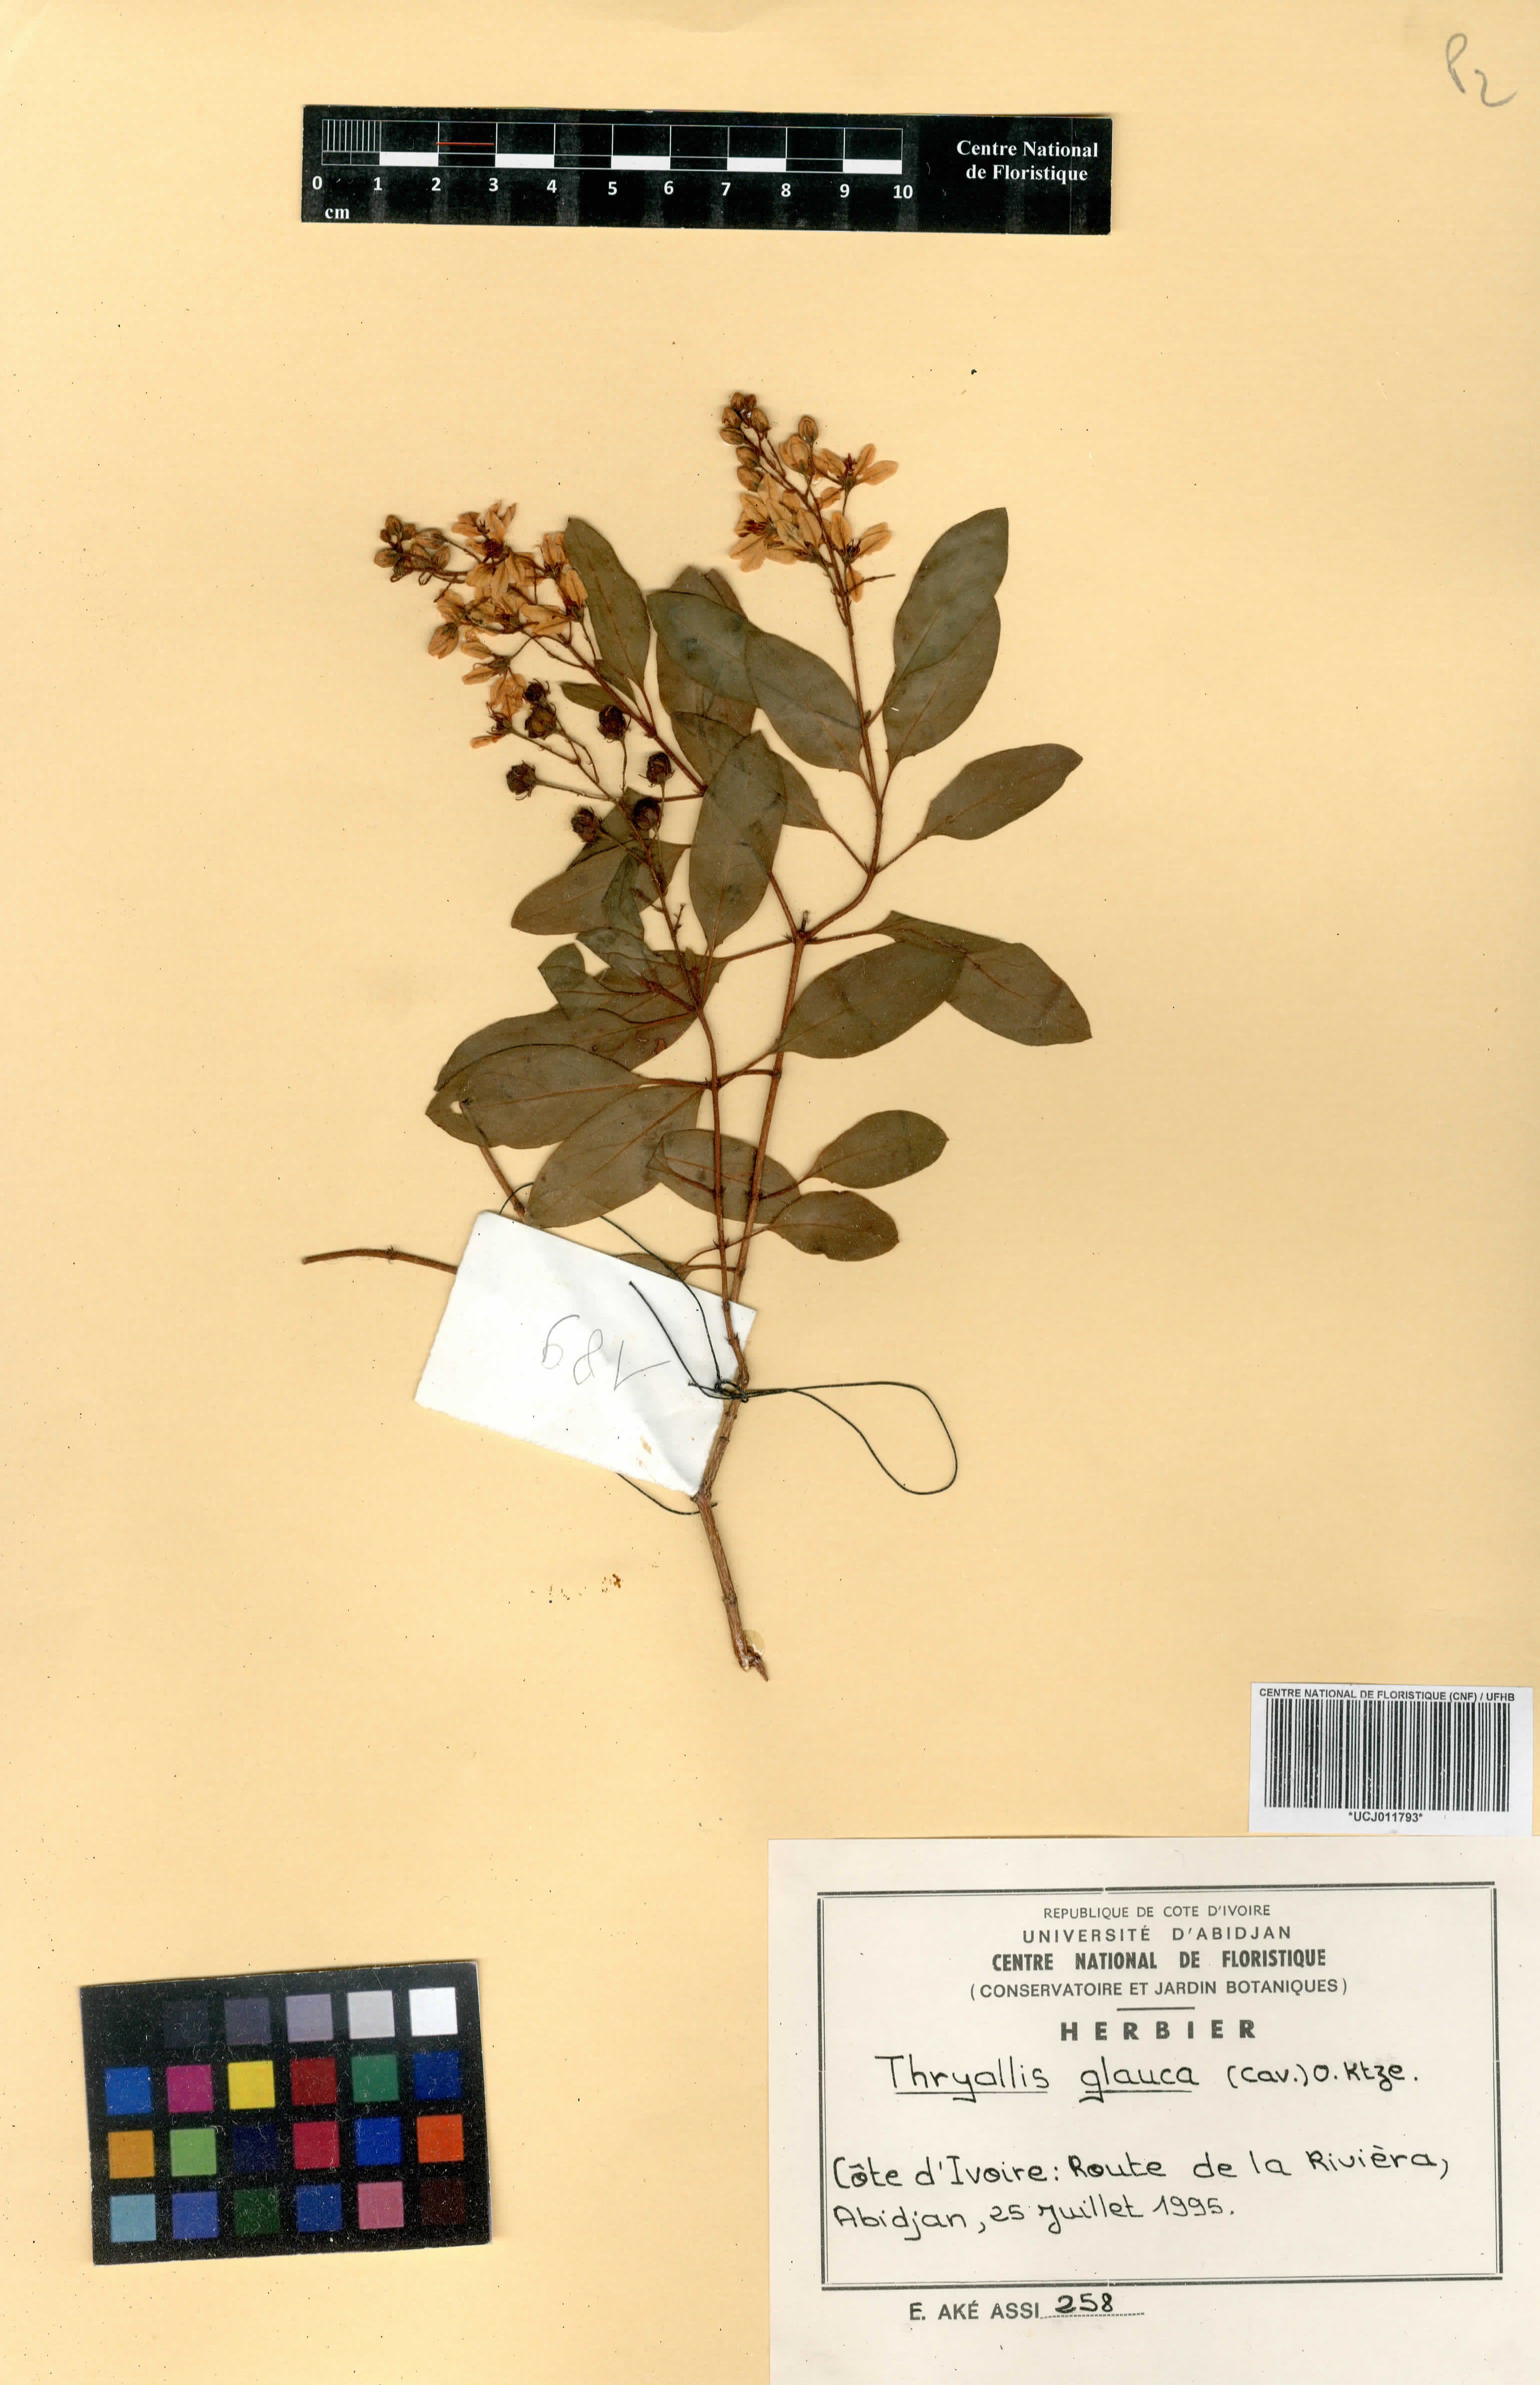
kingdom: Plantae
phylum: Tracheophyta
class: Magnoliopsida
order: Malpighiales
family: Malpighiaceae
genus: Galphimia
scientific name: Galphimia glauca
